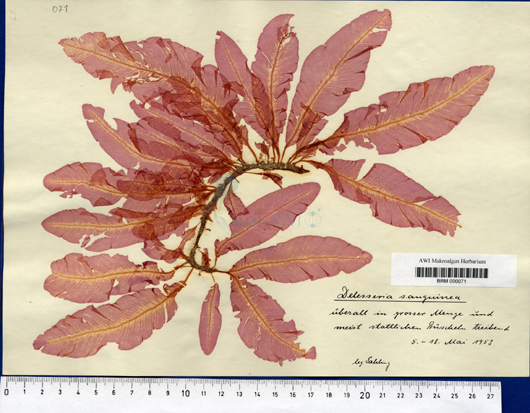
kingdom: Plantae
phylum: Rhodophyta
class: Florideophyceae
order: Ceramiales
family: Delesseriaceae
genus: Delesseria
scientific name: Delesseria sanguinea
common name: Sea beech
